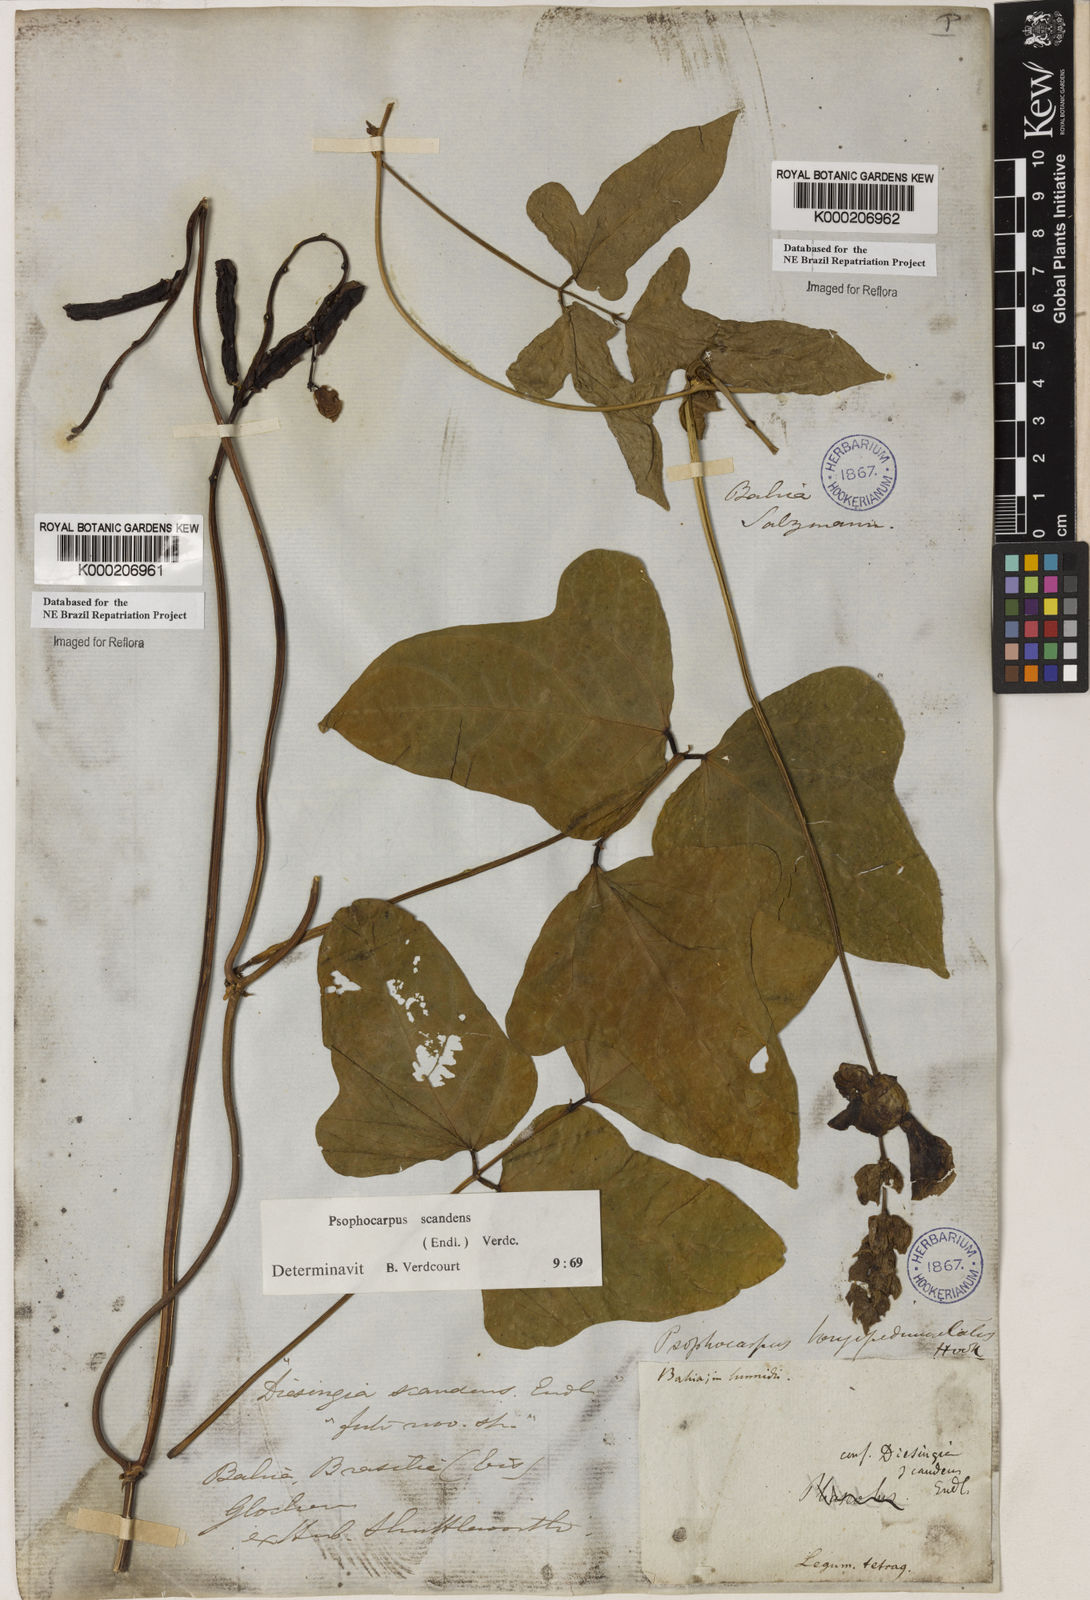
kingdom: Plantae
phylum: Tracheophyta
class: Magnoliopsida
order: Fabales
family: Fabaceae
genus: Psophocarpus
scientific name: Psophocarpus palustris
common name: African winged-bean
